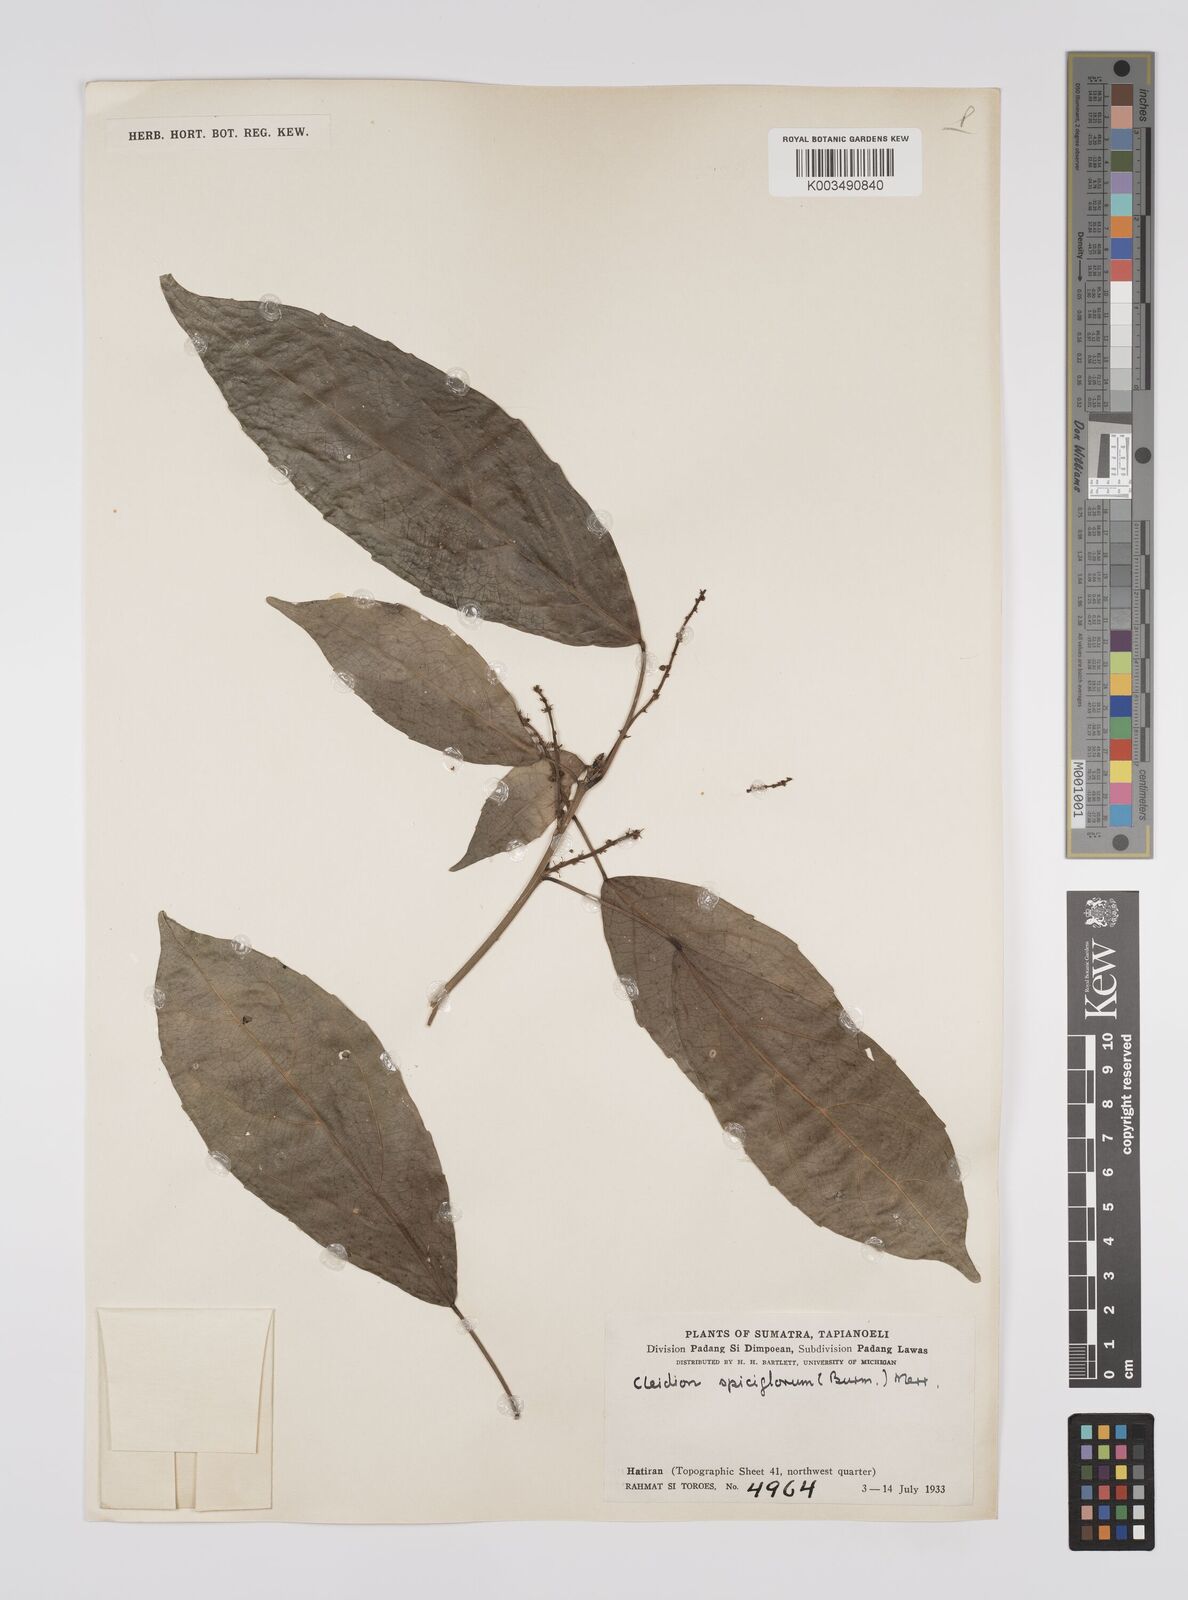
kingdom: Plantae
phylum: Tracheophyta
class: Magnoliopsida
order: Malpighiales
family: Euphorbiaceae
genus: Acalypha
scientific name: Acalypha spiciflora
